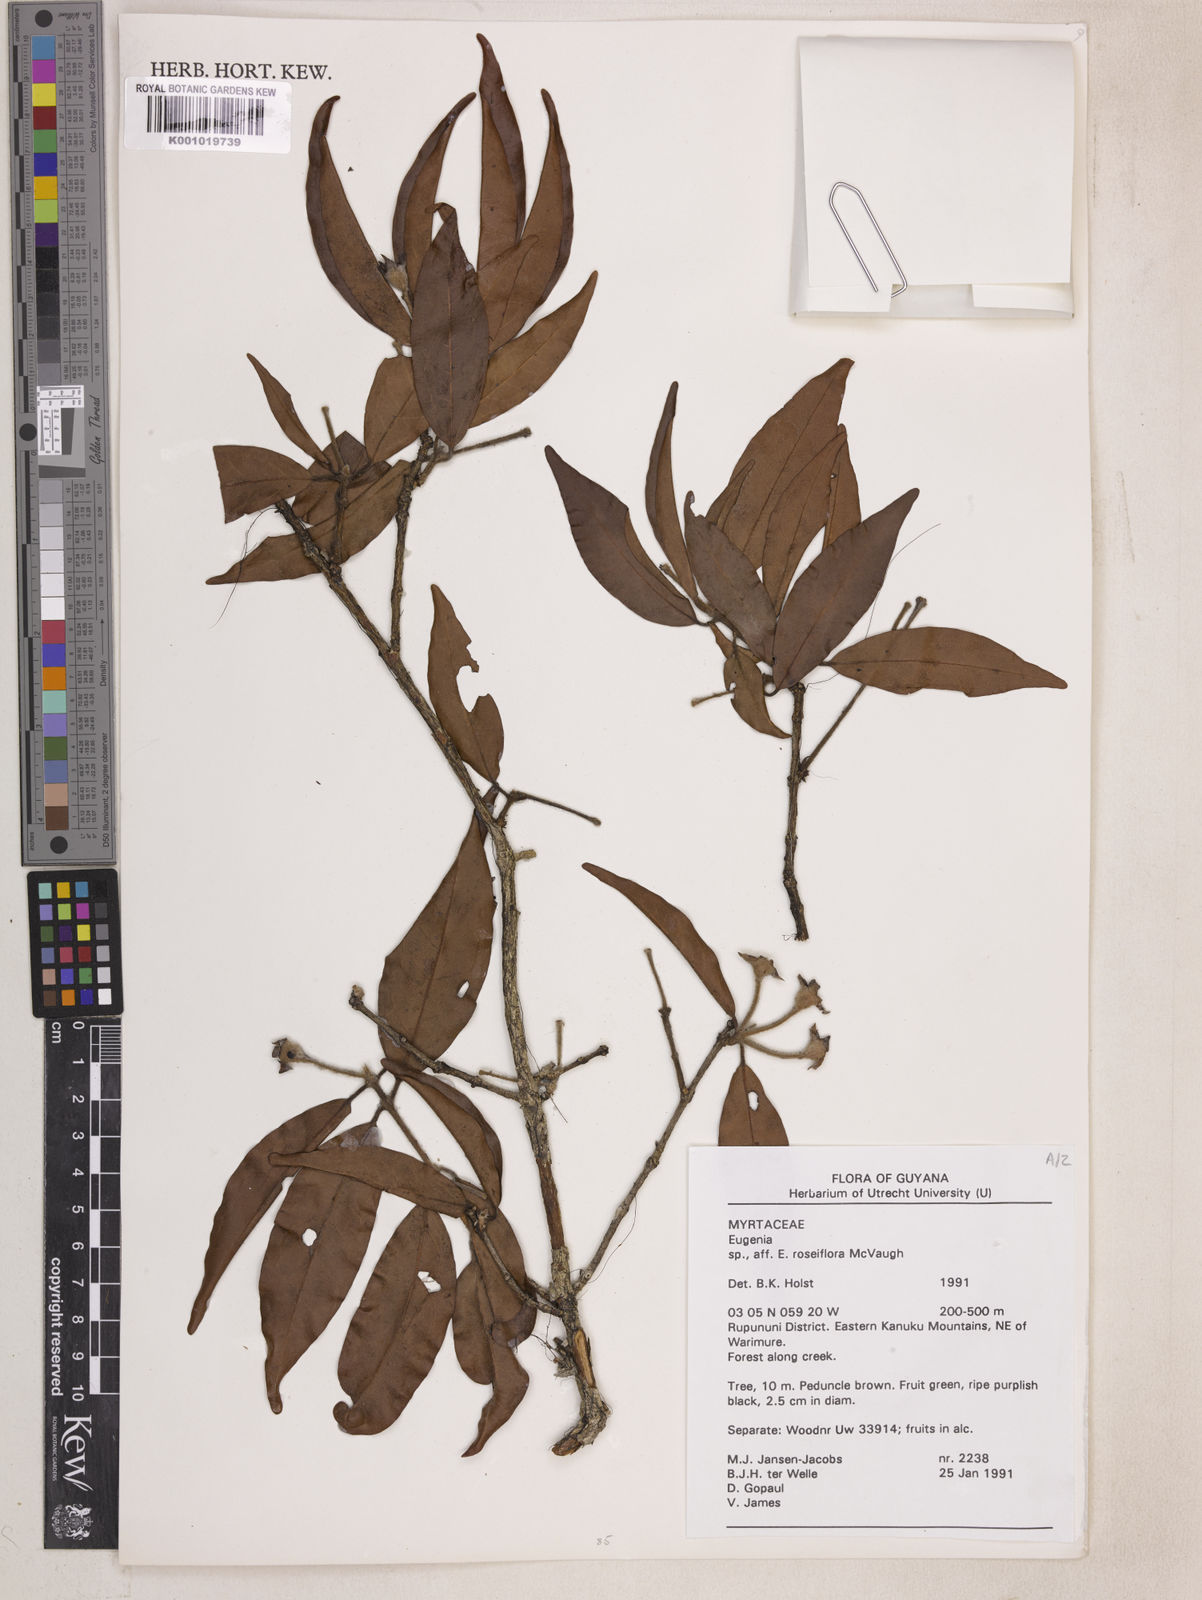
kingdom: Plantae
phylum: Tracheophyta
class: Magnoliopsida
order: Myrtales
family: Myrtaceae
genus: Eugenia
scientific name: Eugenia roseiflora
